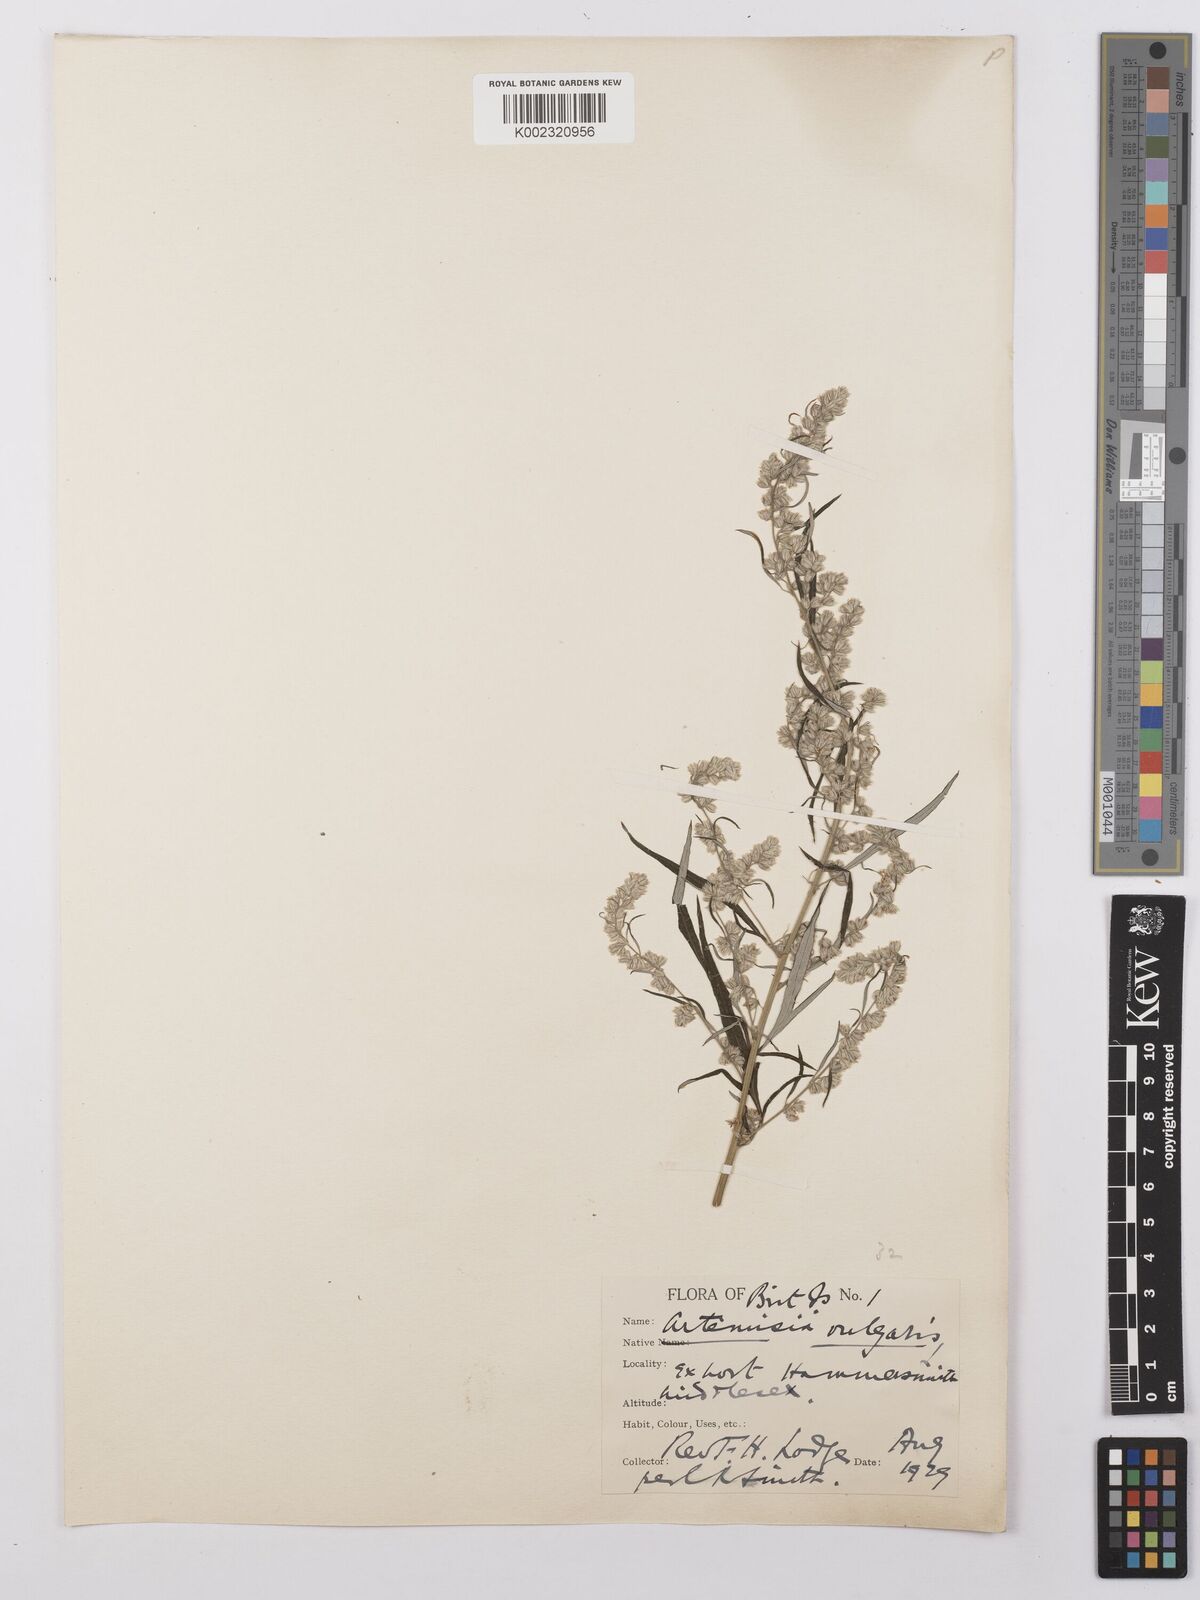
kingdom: Plantae
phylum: Tracheophyta
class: Magnoliopsida
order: Asterales
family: Asteraceae
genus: Artemisia
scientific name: Artemisia vulgaris
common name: Mugwort
